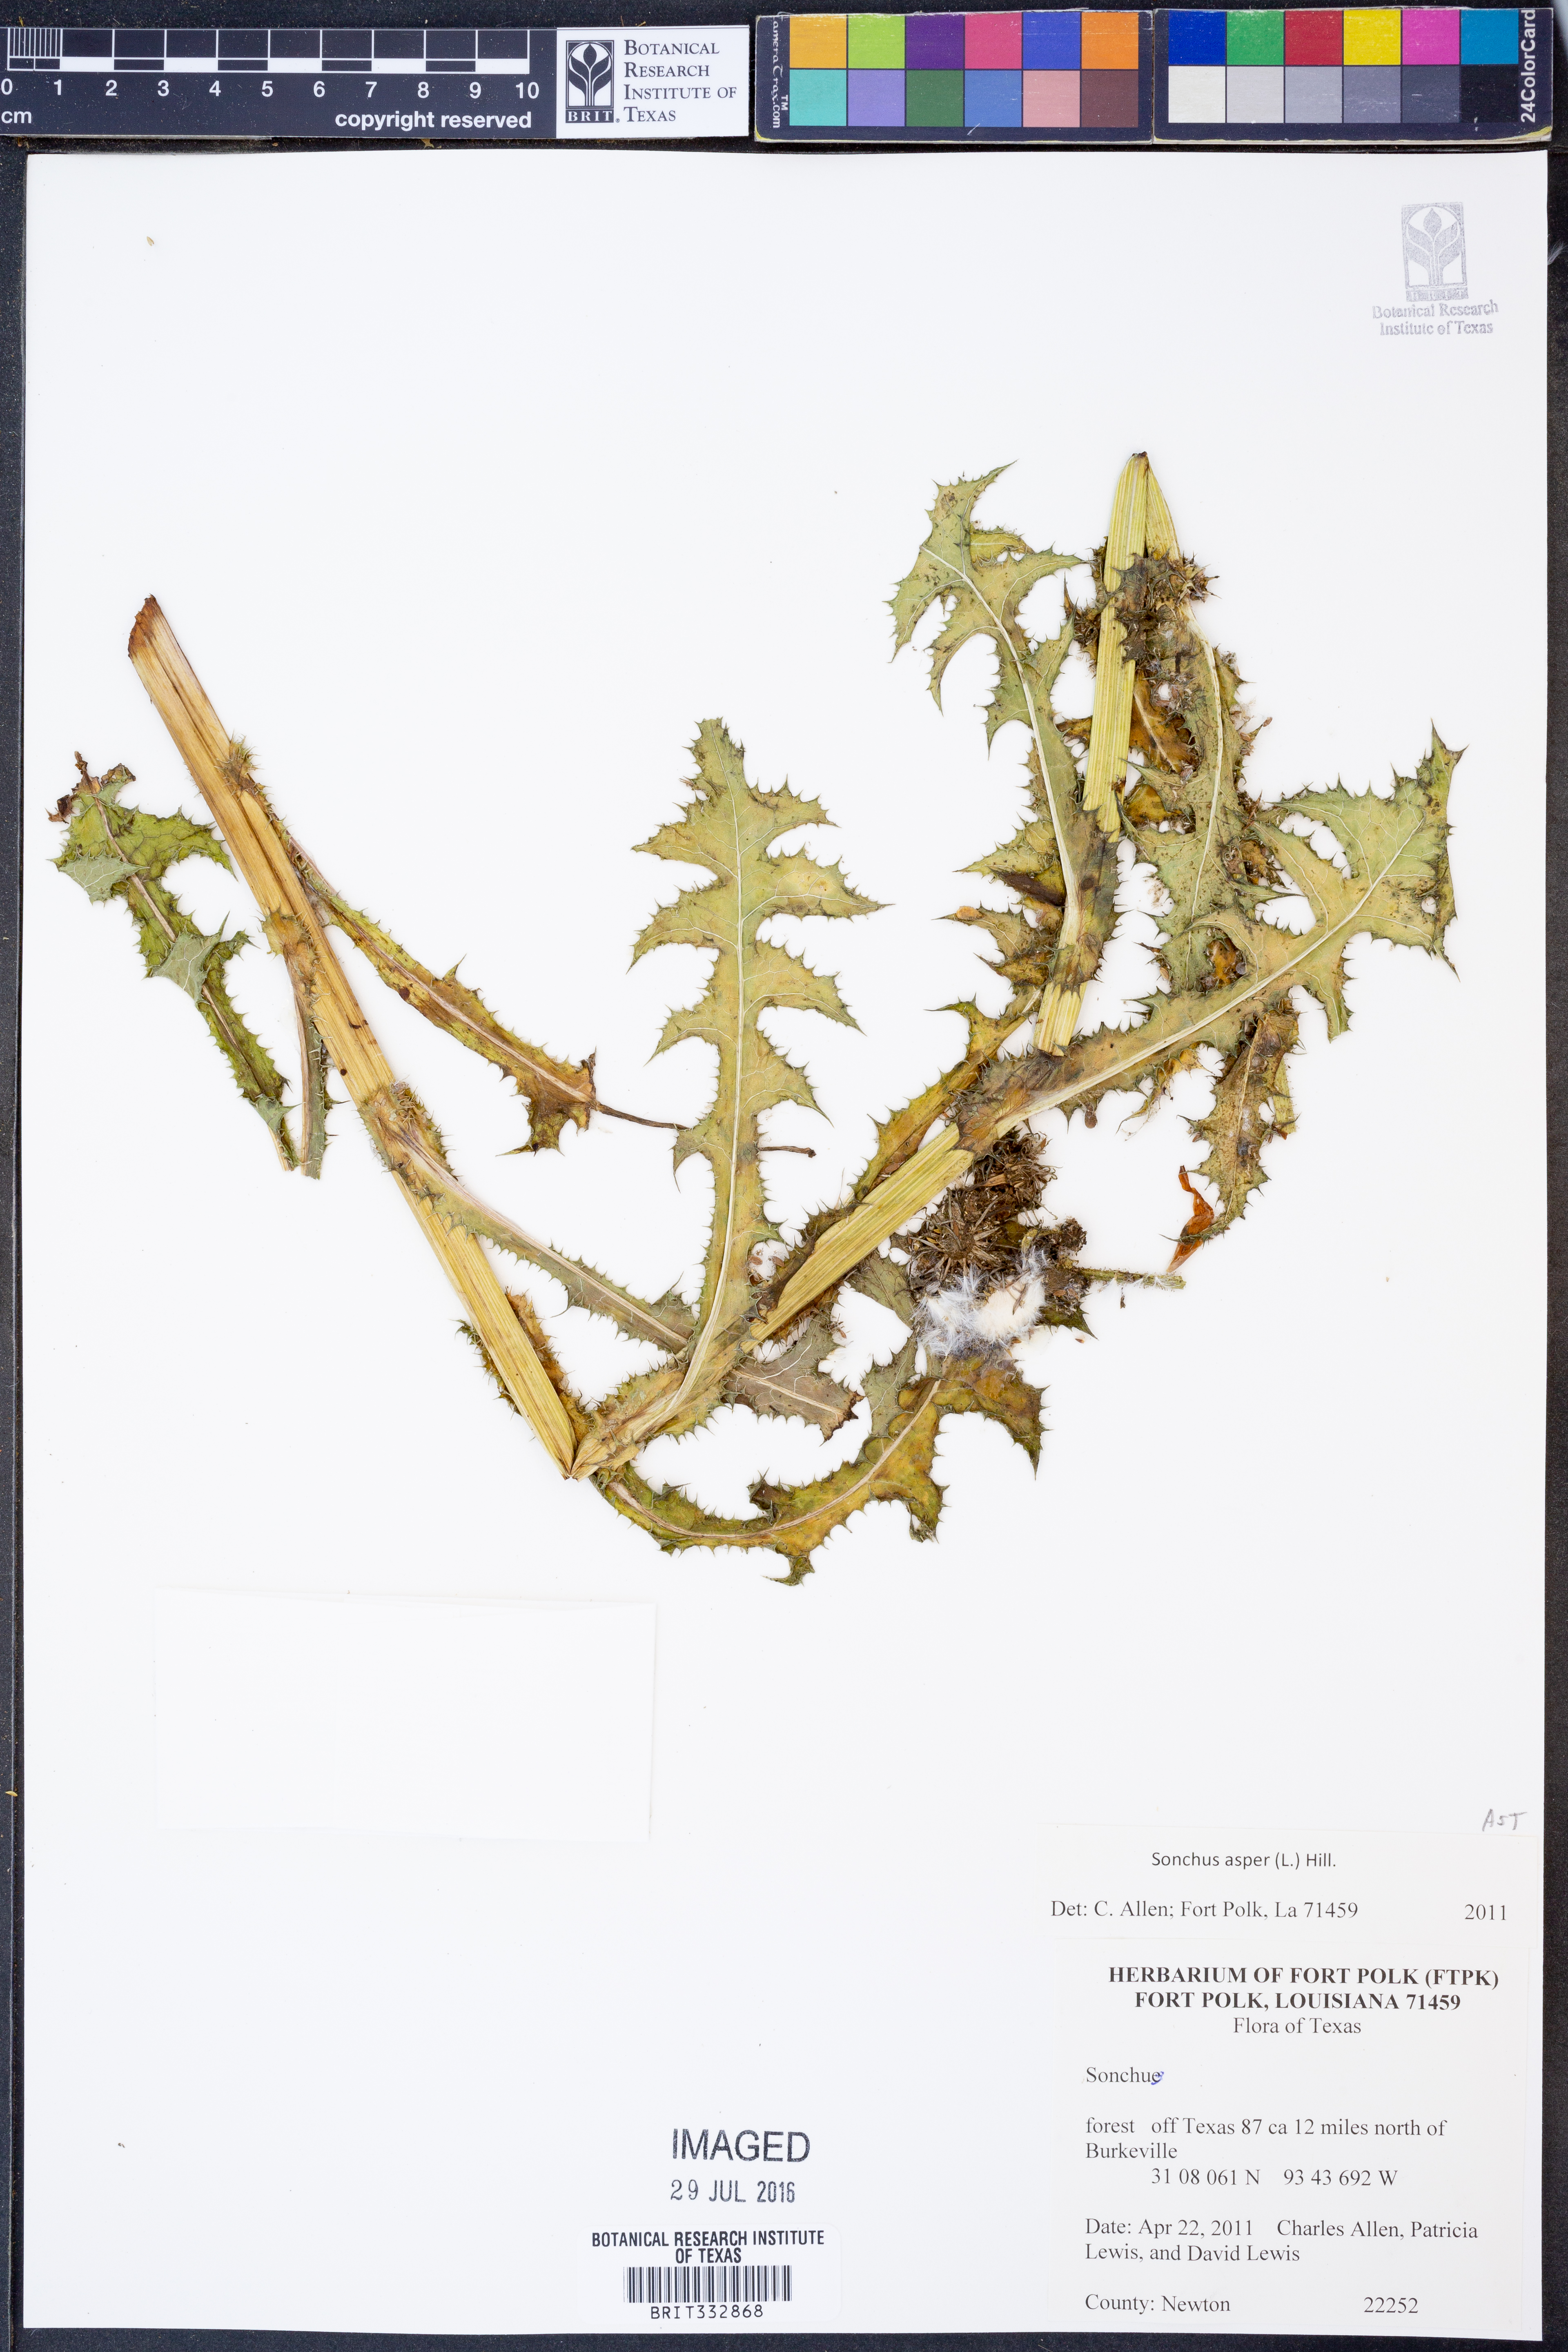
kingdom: Plantae
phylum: Tracheophyta
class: Magnoliopsida
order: Asterales
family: Asteraceae
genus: Sonchus
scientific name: Sonchus asper
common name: Prickly sow-thistle
